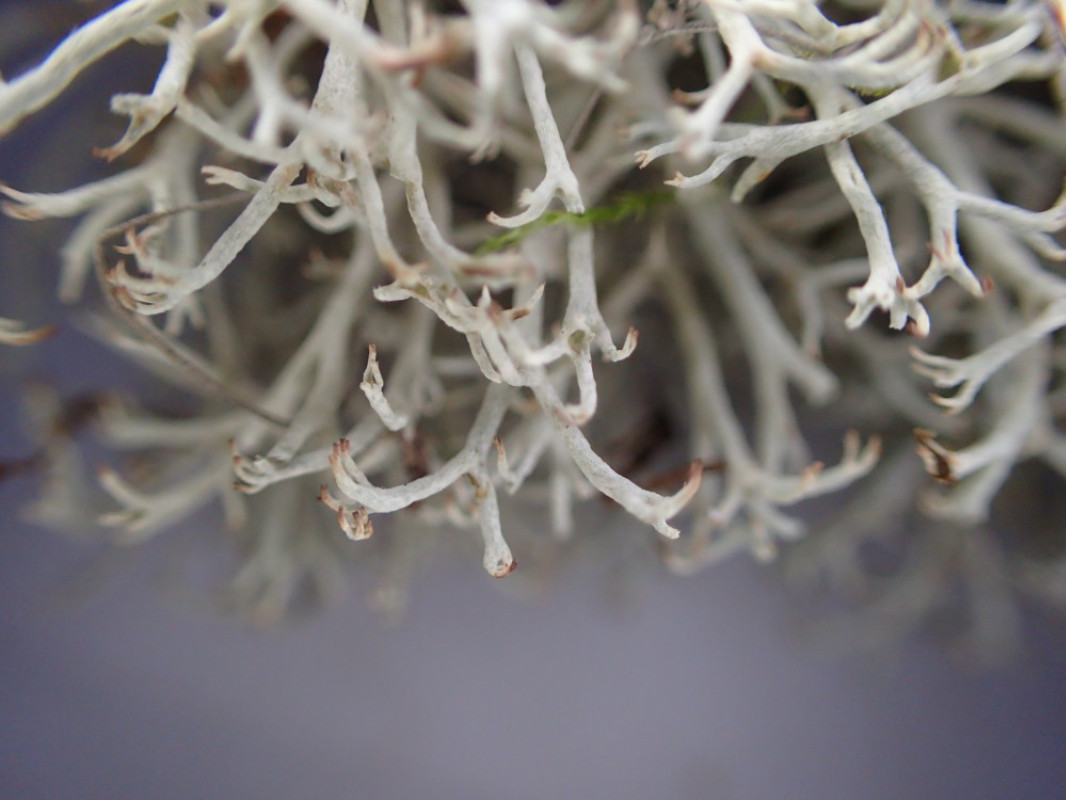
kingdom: Fungi
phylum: Ascomycota
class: Lecanoromycetes
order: Lecanorales
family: Cladoniaceae
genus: Cladonia
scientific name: Cladonia mitis
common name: mild rensdyrlav
